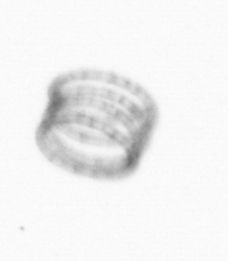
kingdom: Chromista
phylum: Ochrophyta
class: Bacillariophyceae
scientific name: Bacillariophyceae
